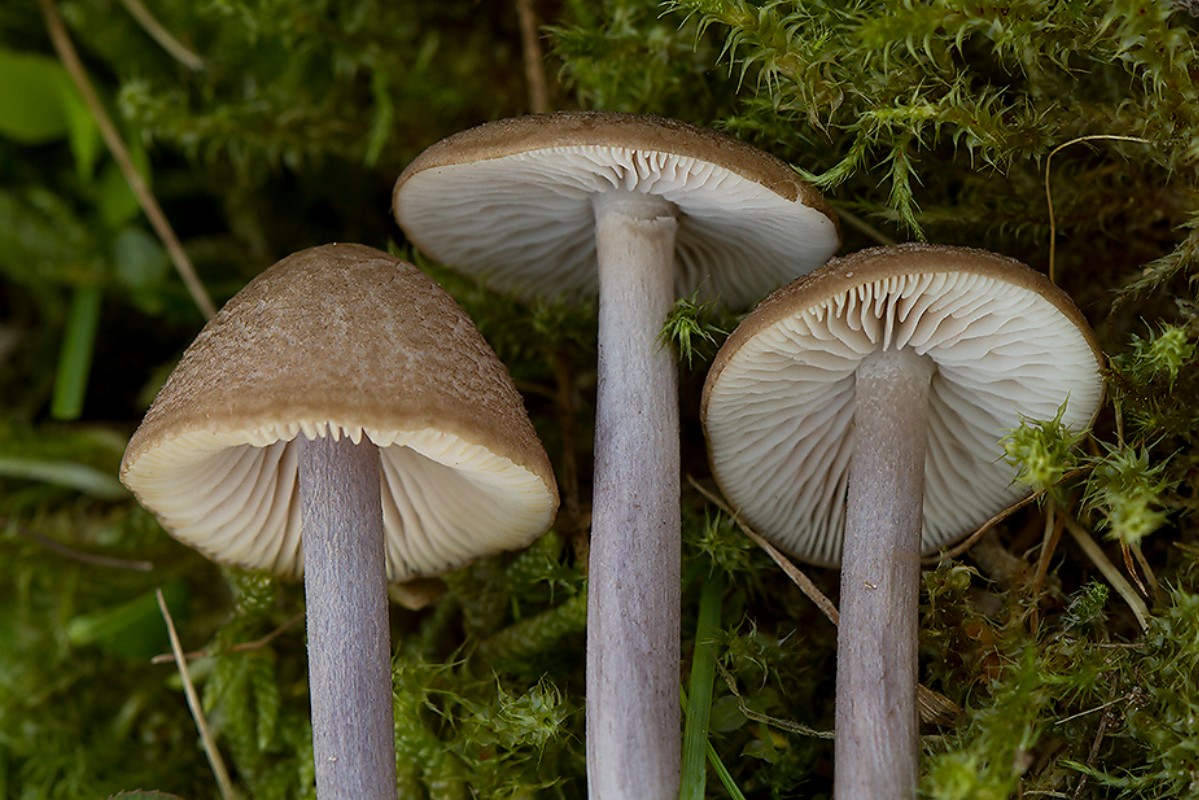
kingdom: Fungi
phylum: Basidiomycota
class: Agaricomycetes
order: Agaricales
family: Entolomataceae
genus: Entoloma
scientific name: Entoloma griseocyaneum
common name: gråblå rødblad
